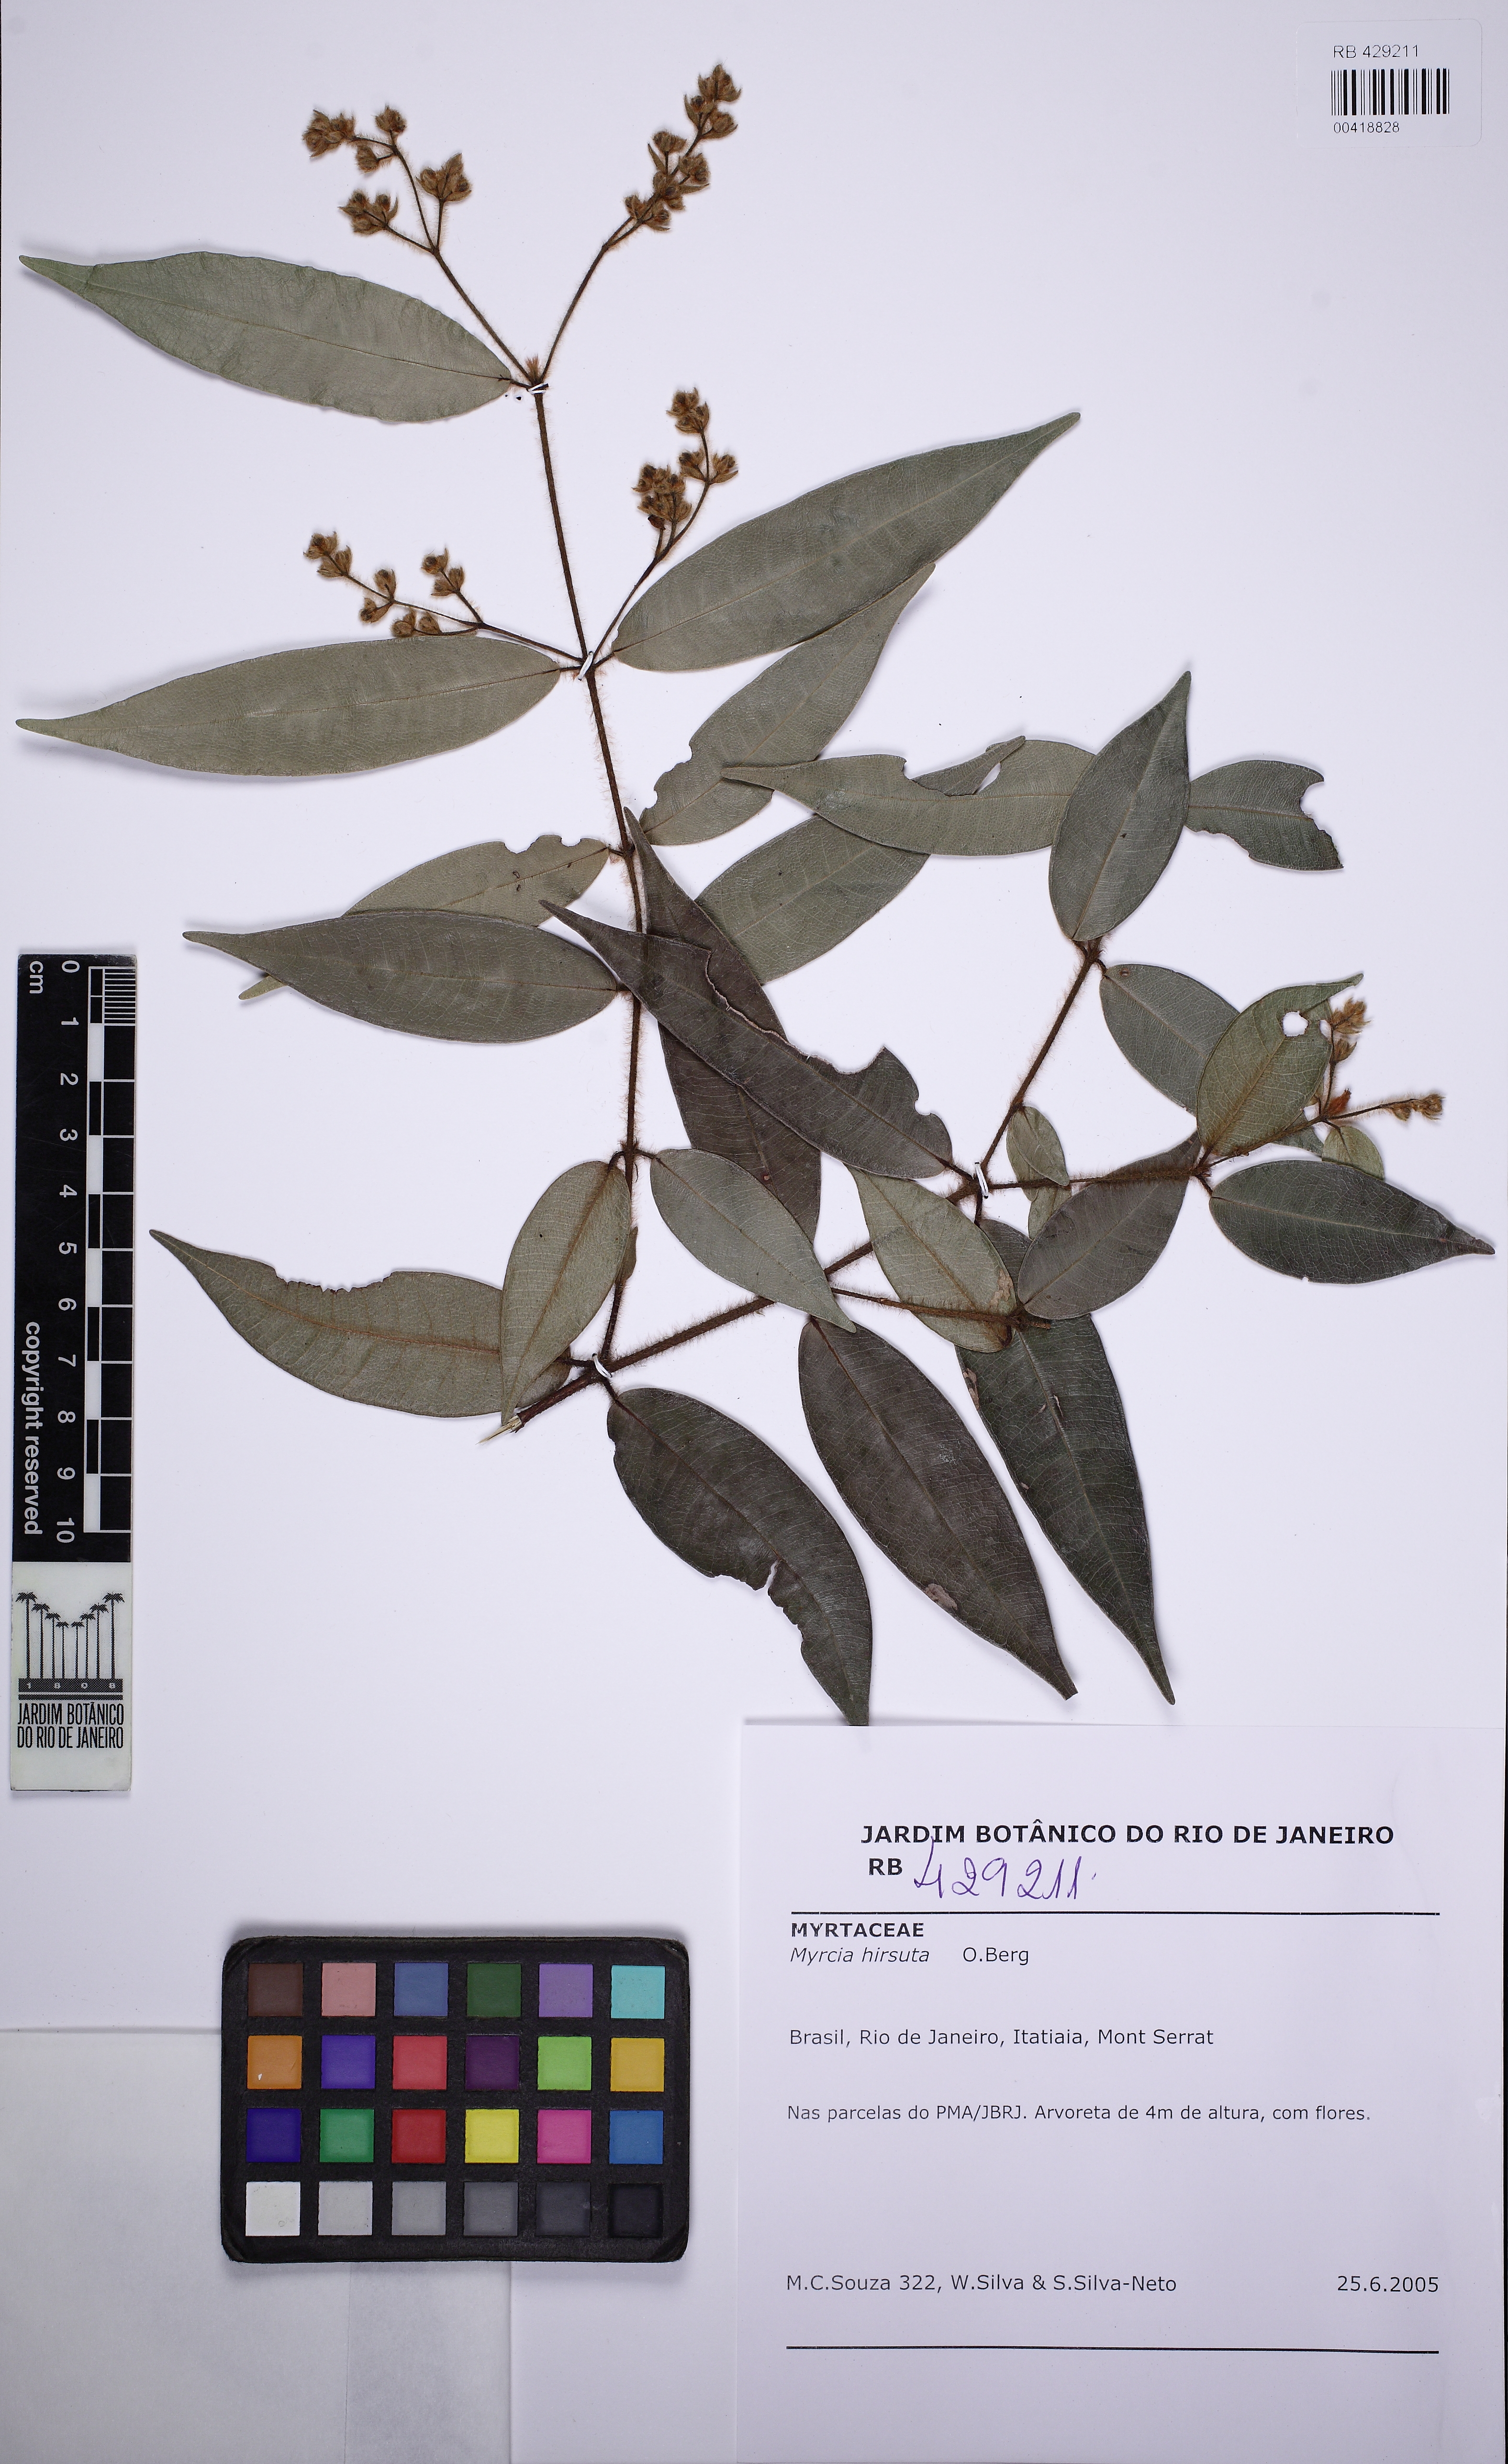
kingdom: Plantae
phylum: Tracheophyta
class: Magnoliopsida
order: Myrtales
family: Myrtaceae
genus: Myrcia
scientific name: Myrcia eriopus
